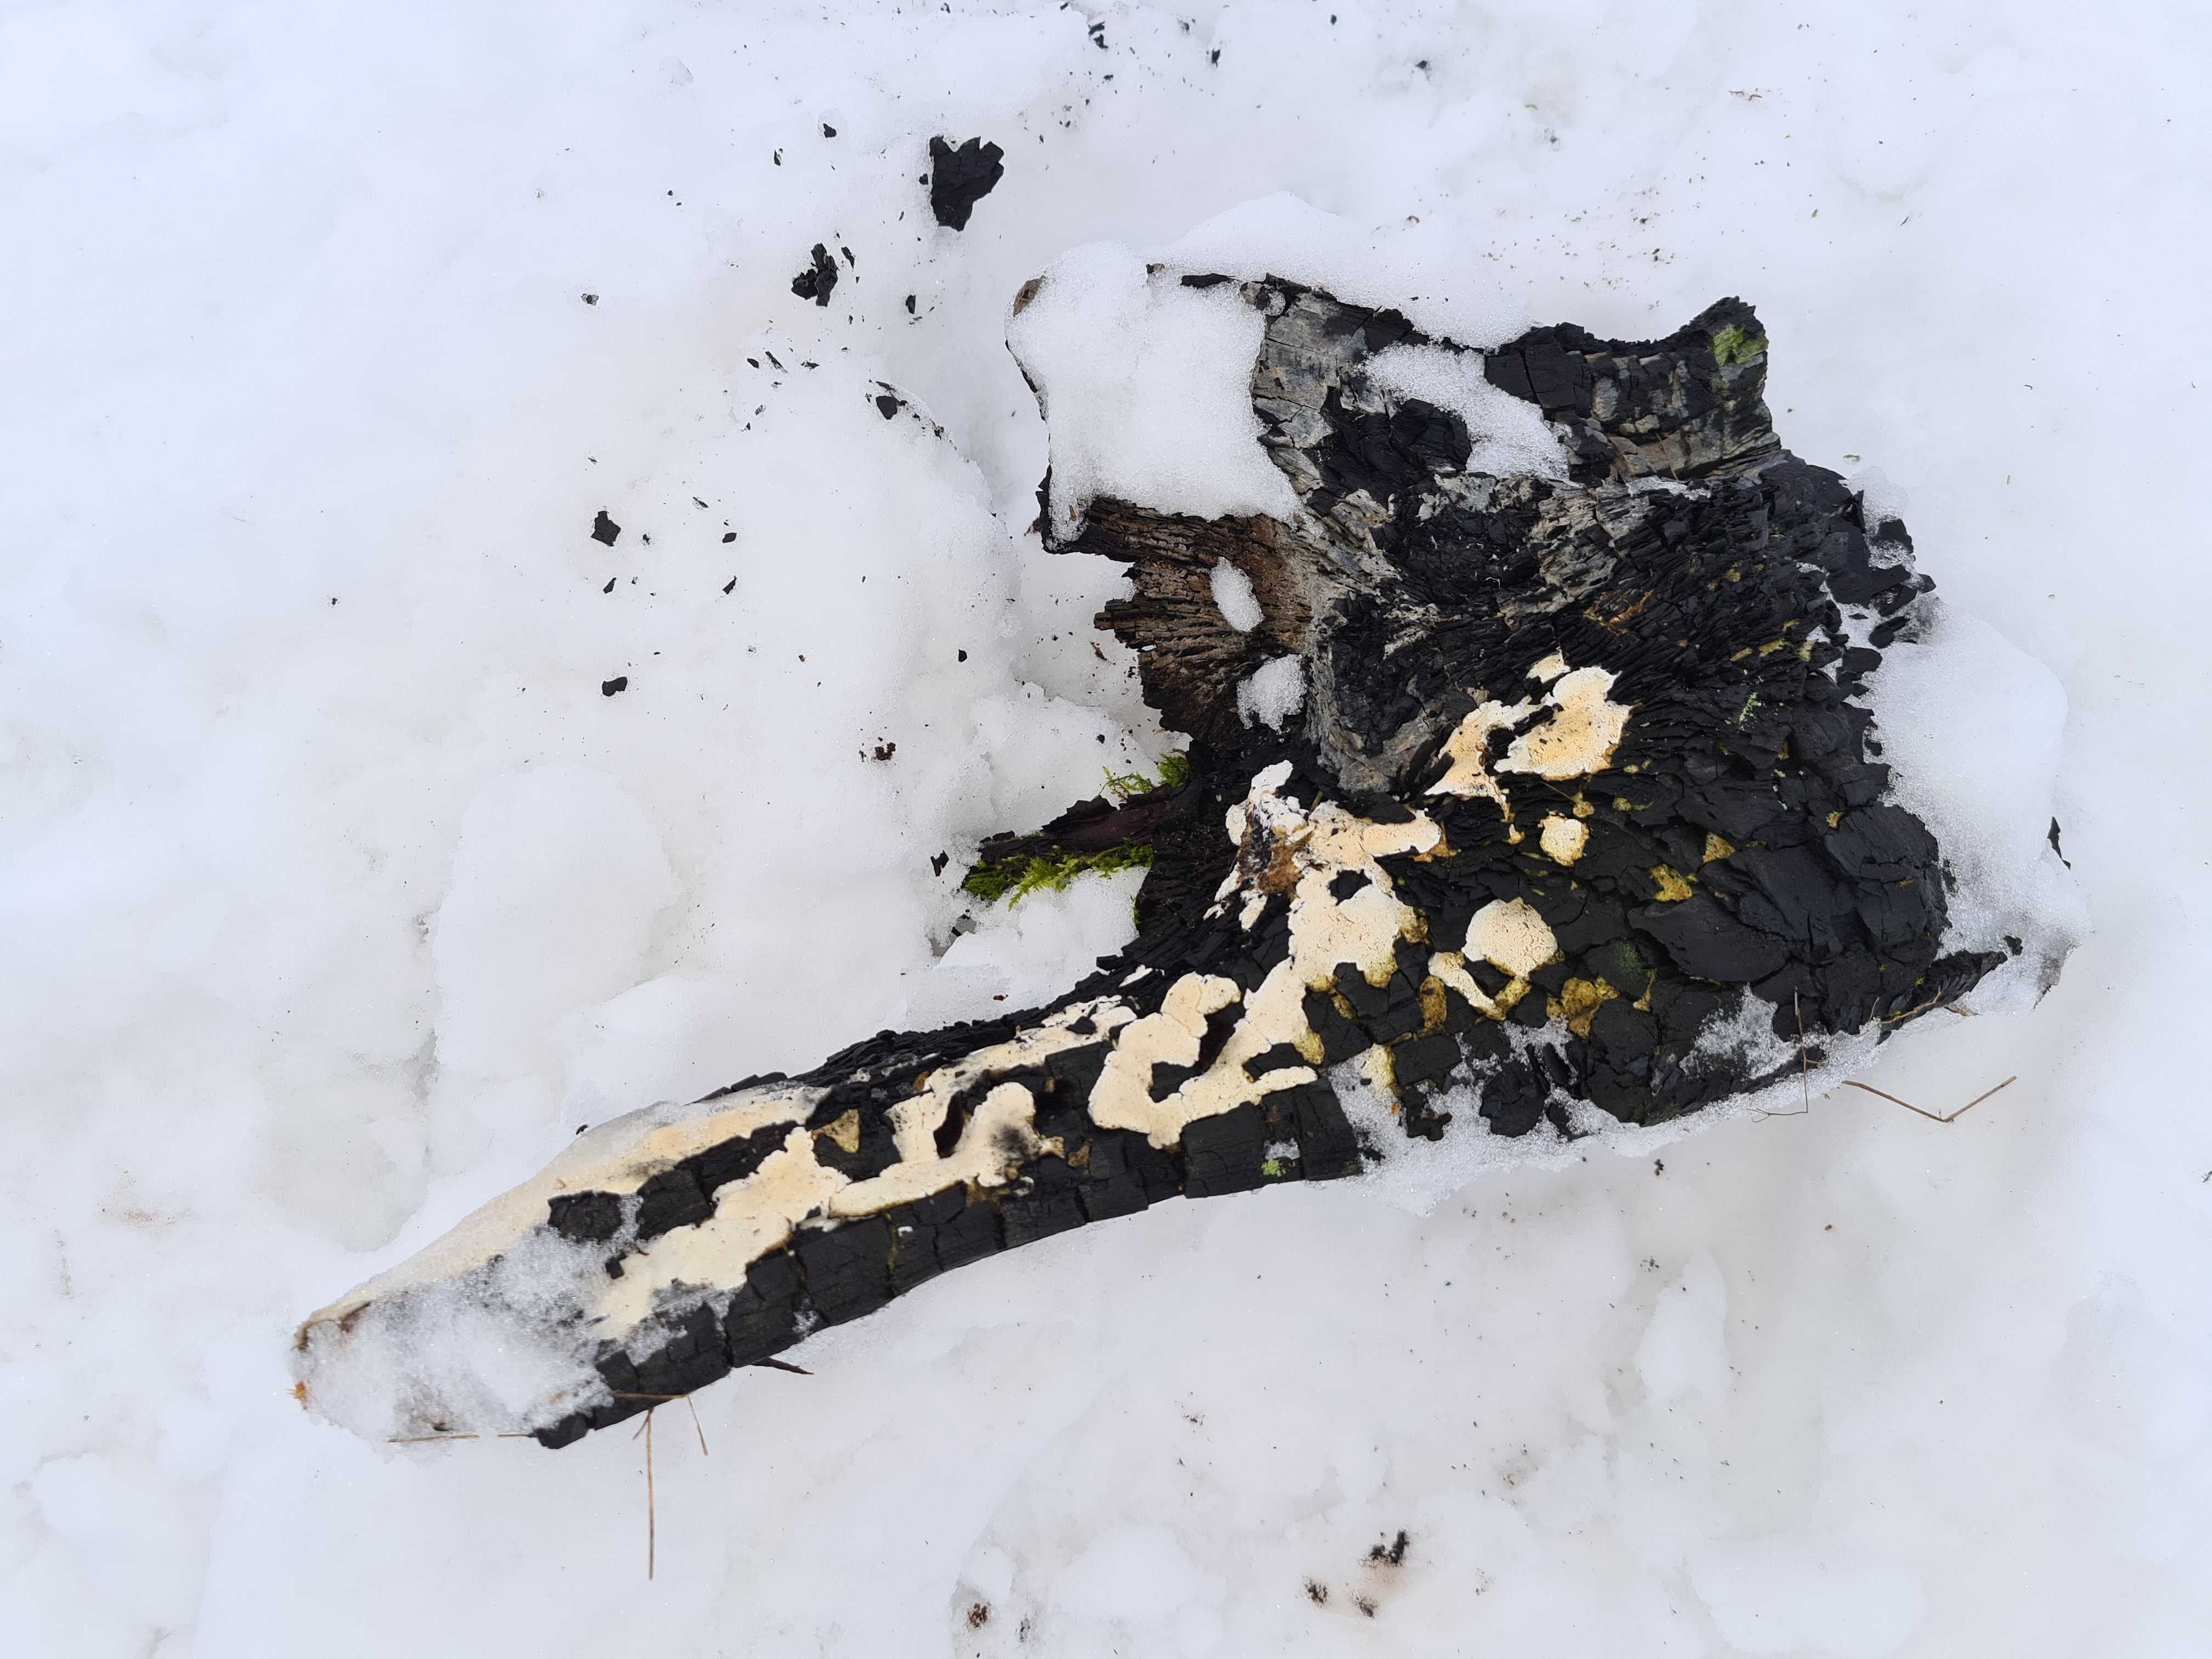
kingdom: Fungi
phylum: Basidiomycota
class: Agaricomycetes
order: Hymenochaetales
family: Schizoporaceae
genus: Xylodon
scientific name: Xylodon
